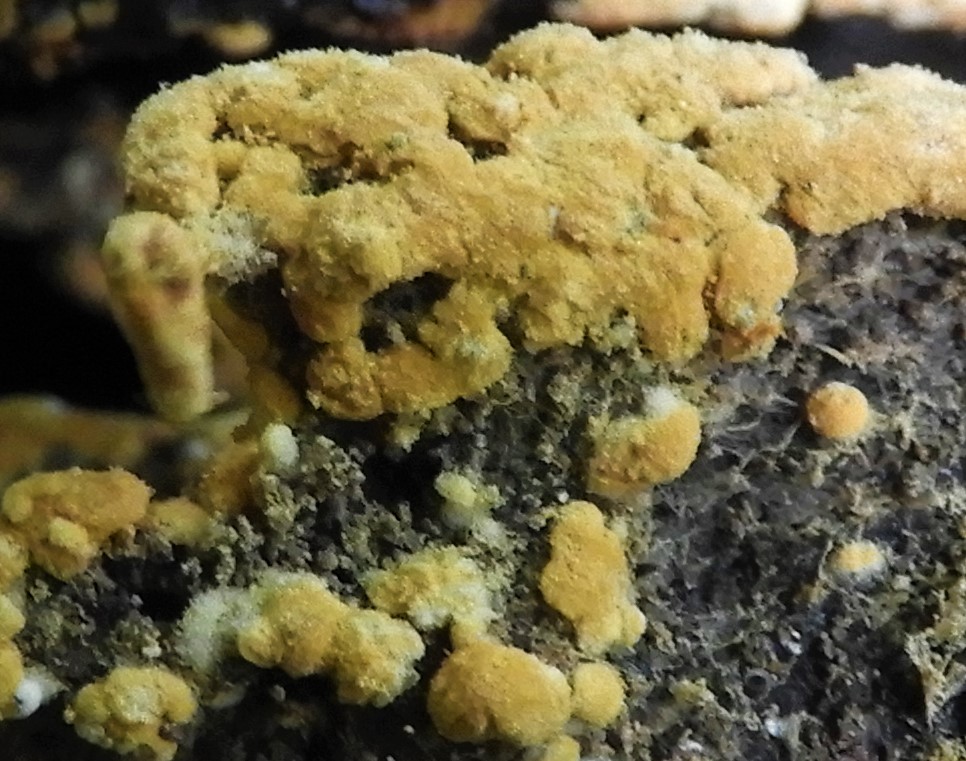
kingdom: Fungi
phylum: Basidiomycota
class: Agaricomycetes
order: Cantharellales
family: Botryobasidiaceae
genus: Botryobasidium
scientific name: Botryobasidium aureum
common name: gylden spindhinde
